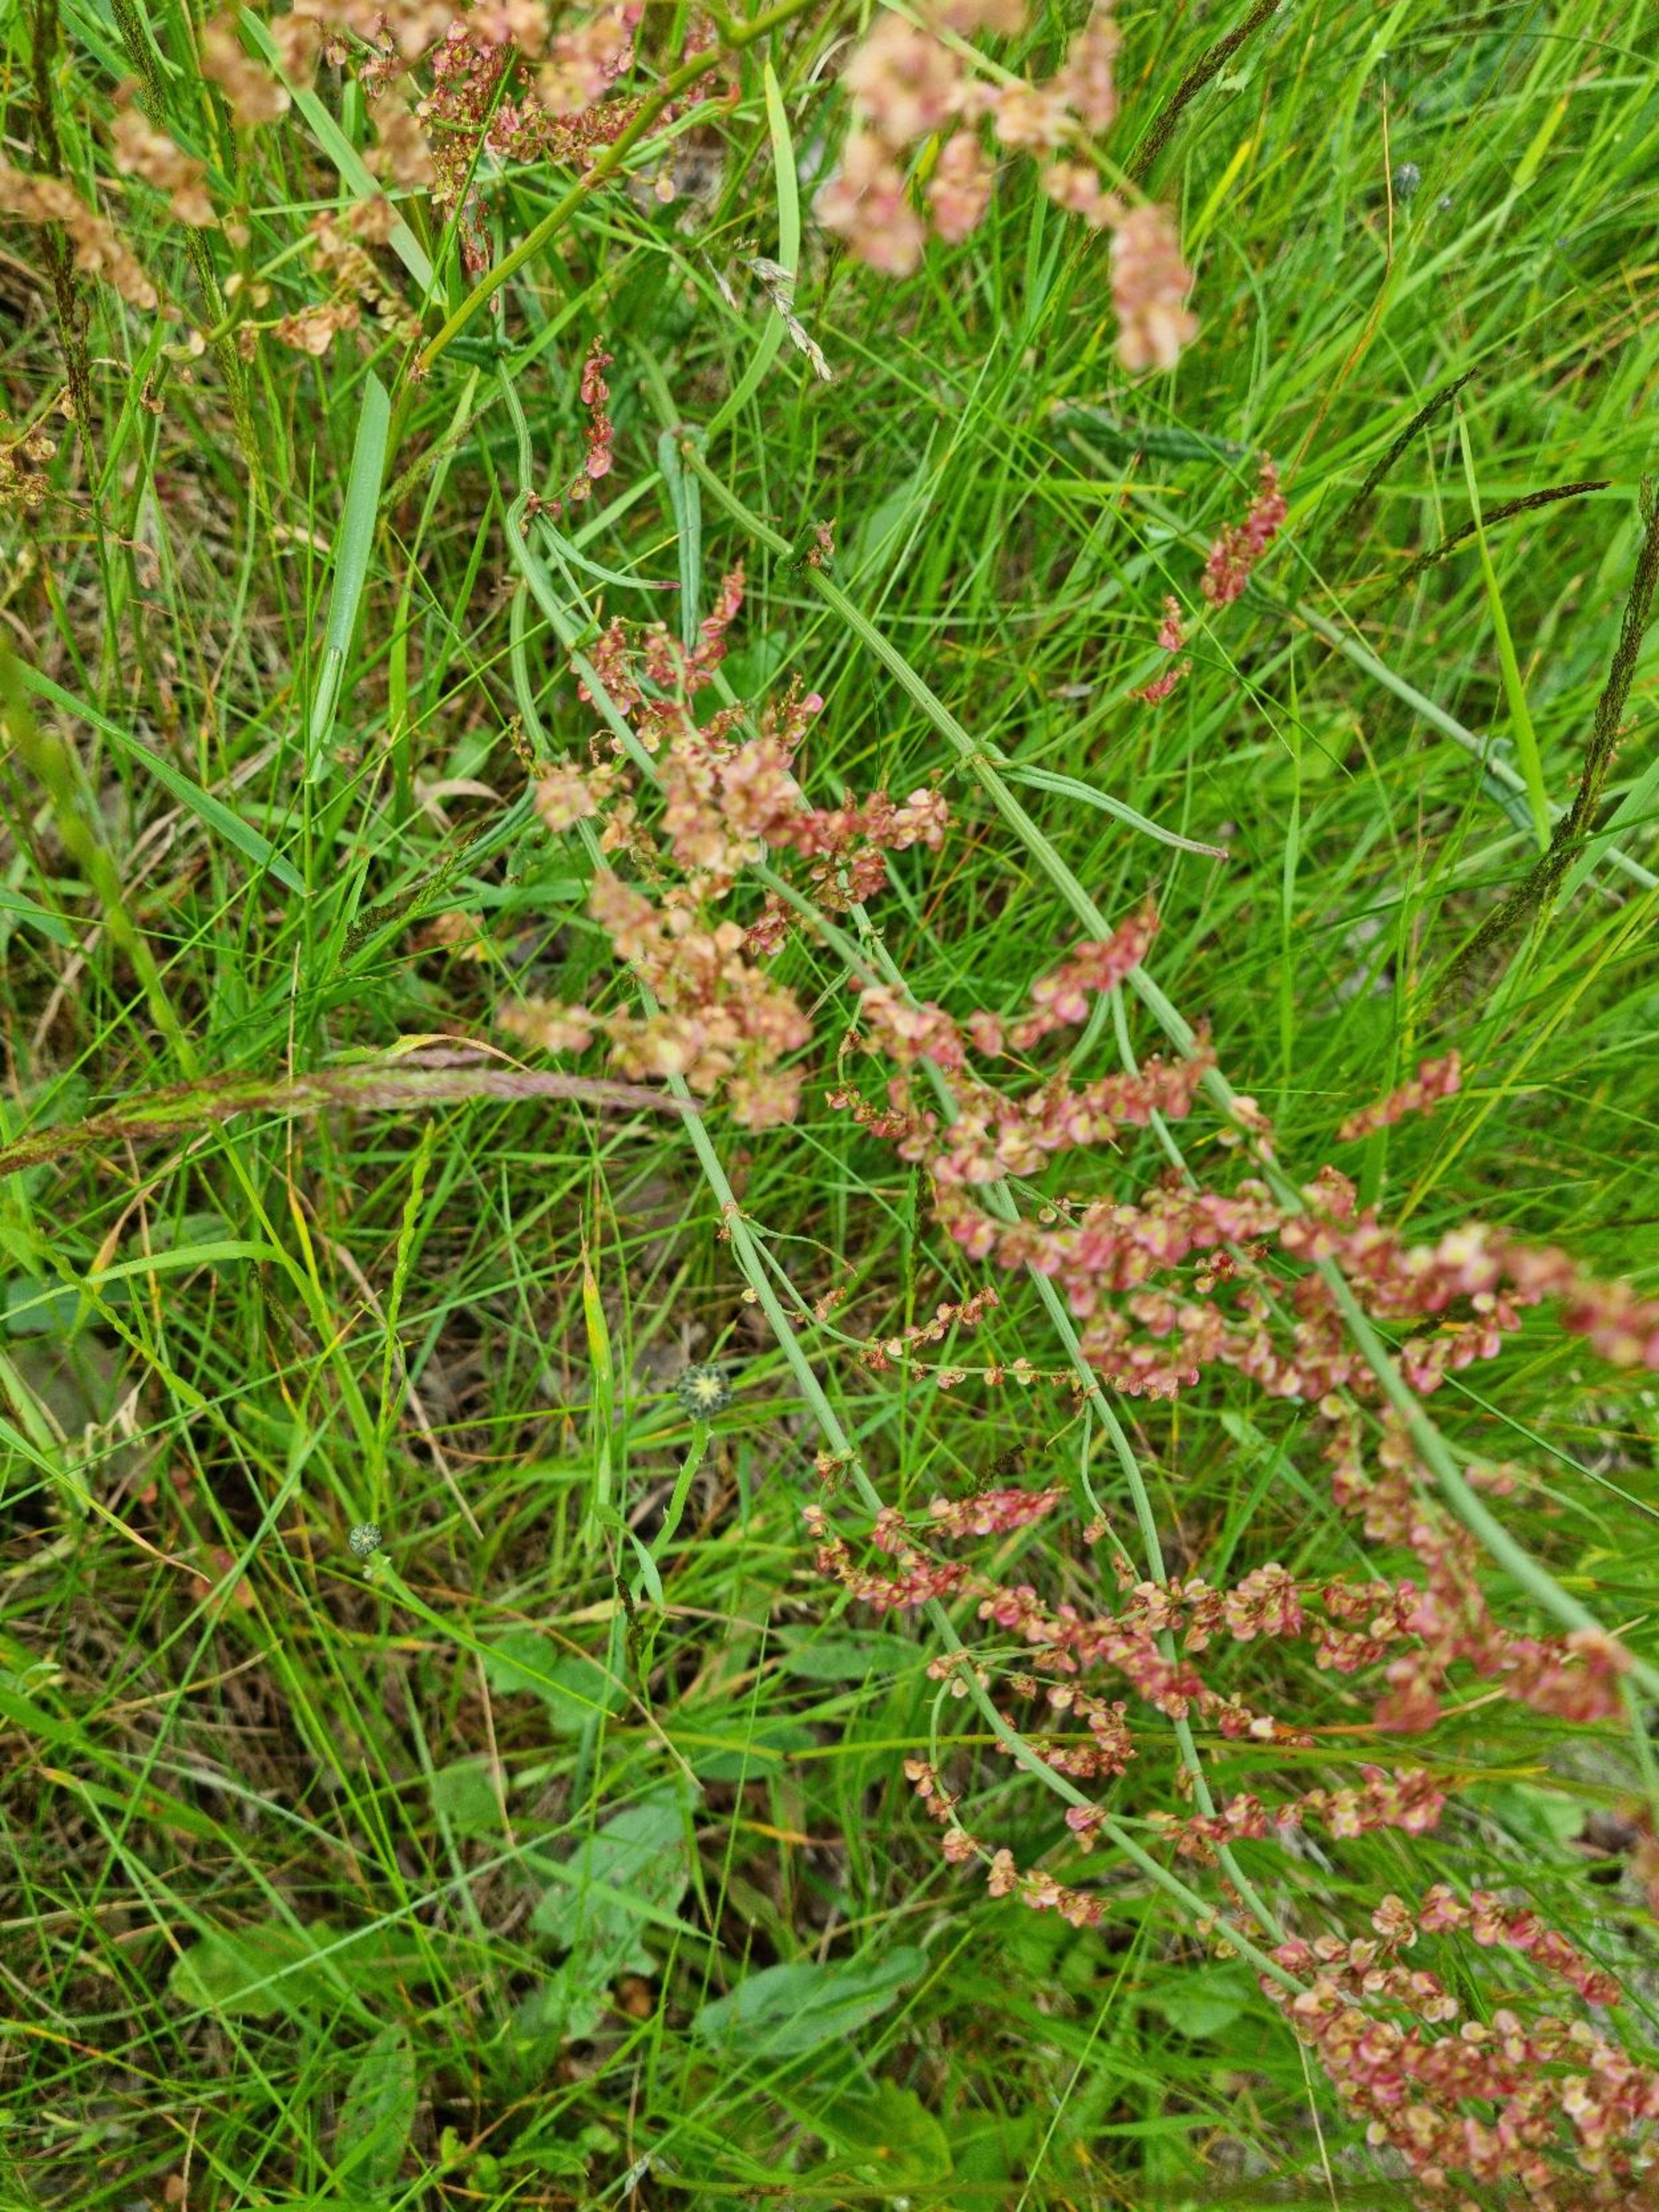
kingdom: Plantae
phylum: Tracheophyta
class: Magnoliopsida
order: Caryophyllales
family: Polygonaceae
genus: Rumex
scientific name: Rumex acetosa
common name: Almindelig syre
